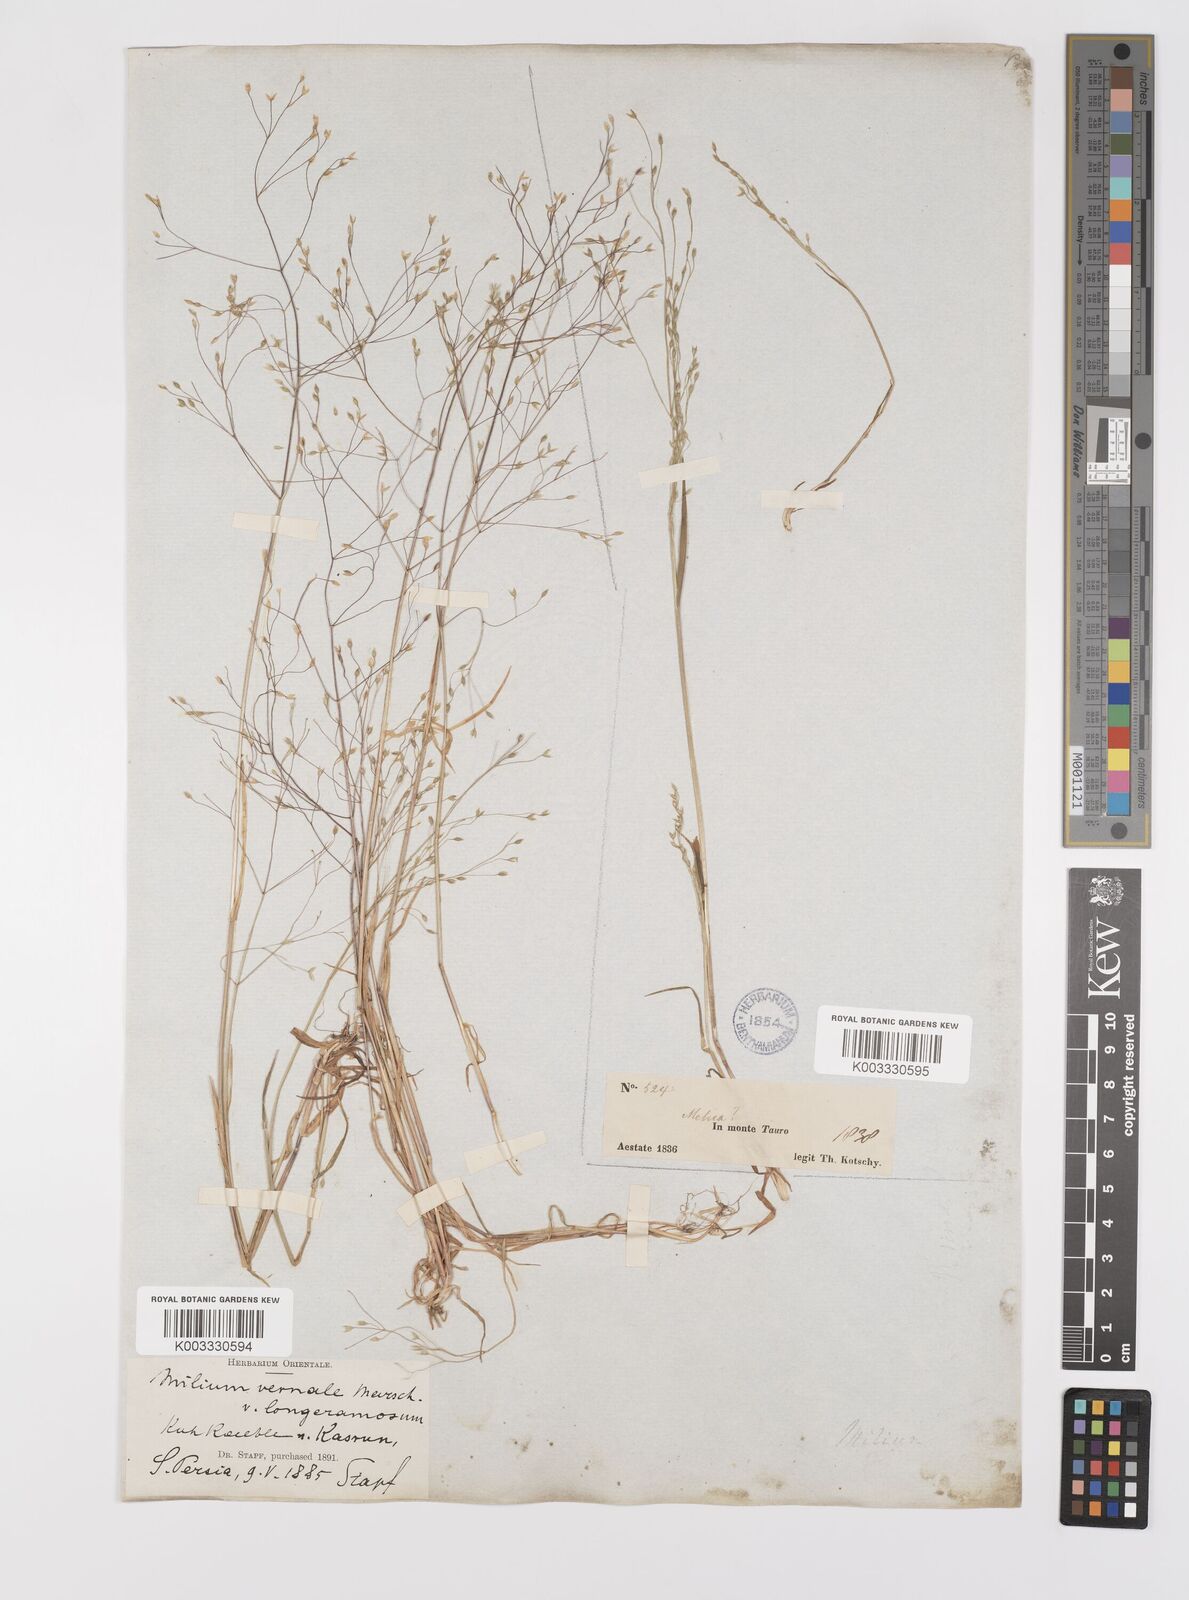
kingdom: Plantae
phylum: Tracheophyta
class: Liliopsida
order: Poales
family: Poaceae
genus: Milium
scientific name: Milium pedicellare
